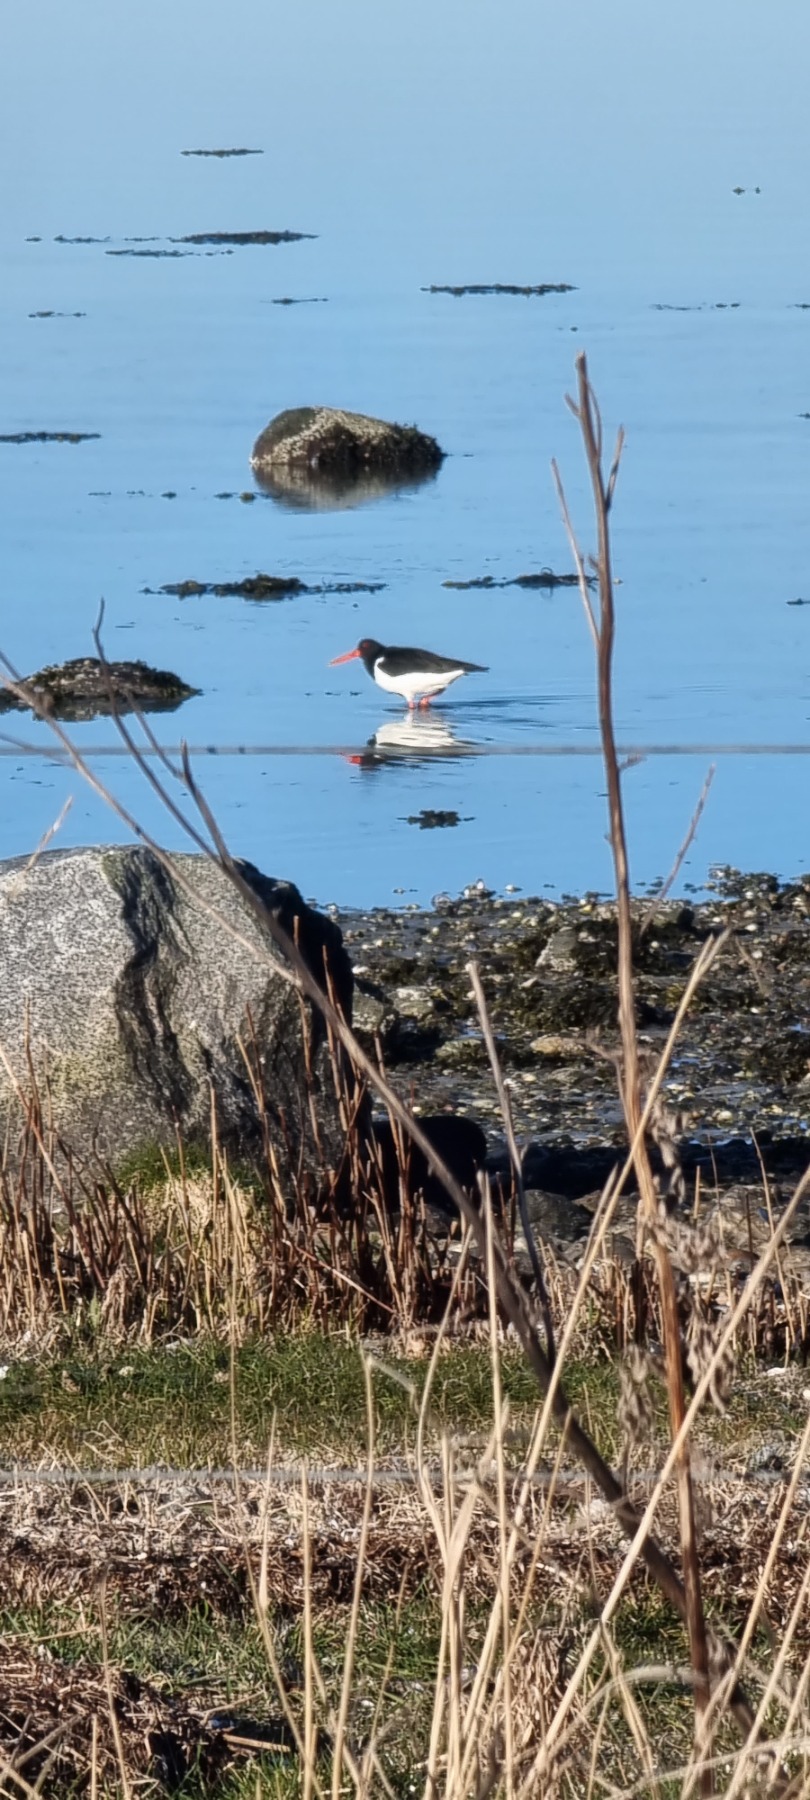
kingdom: Animalia
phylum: Chordata
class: Aves
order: Charadriiformes
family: Haematopodidae
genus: Haematopus
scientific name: Haematopus ostralegus
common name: Strandskade
